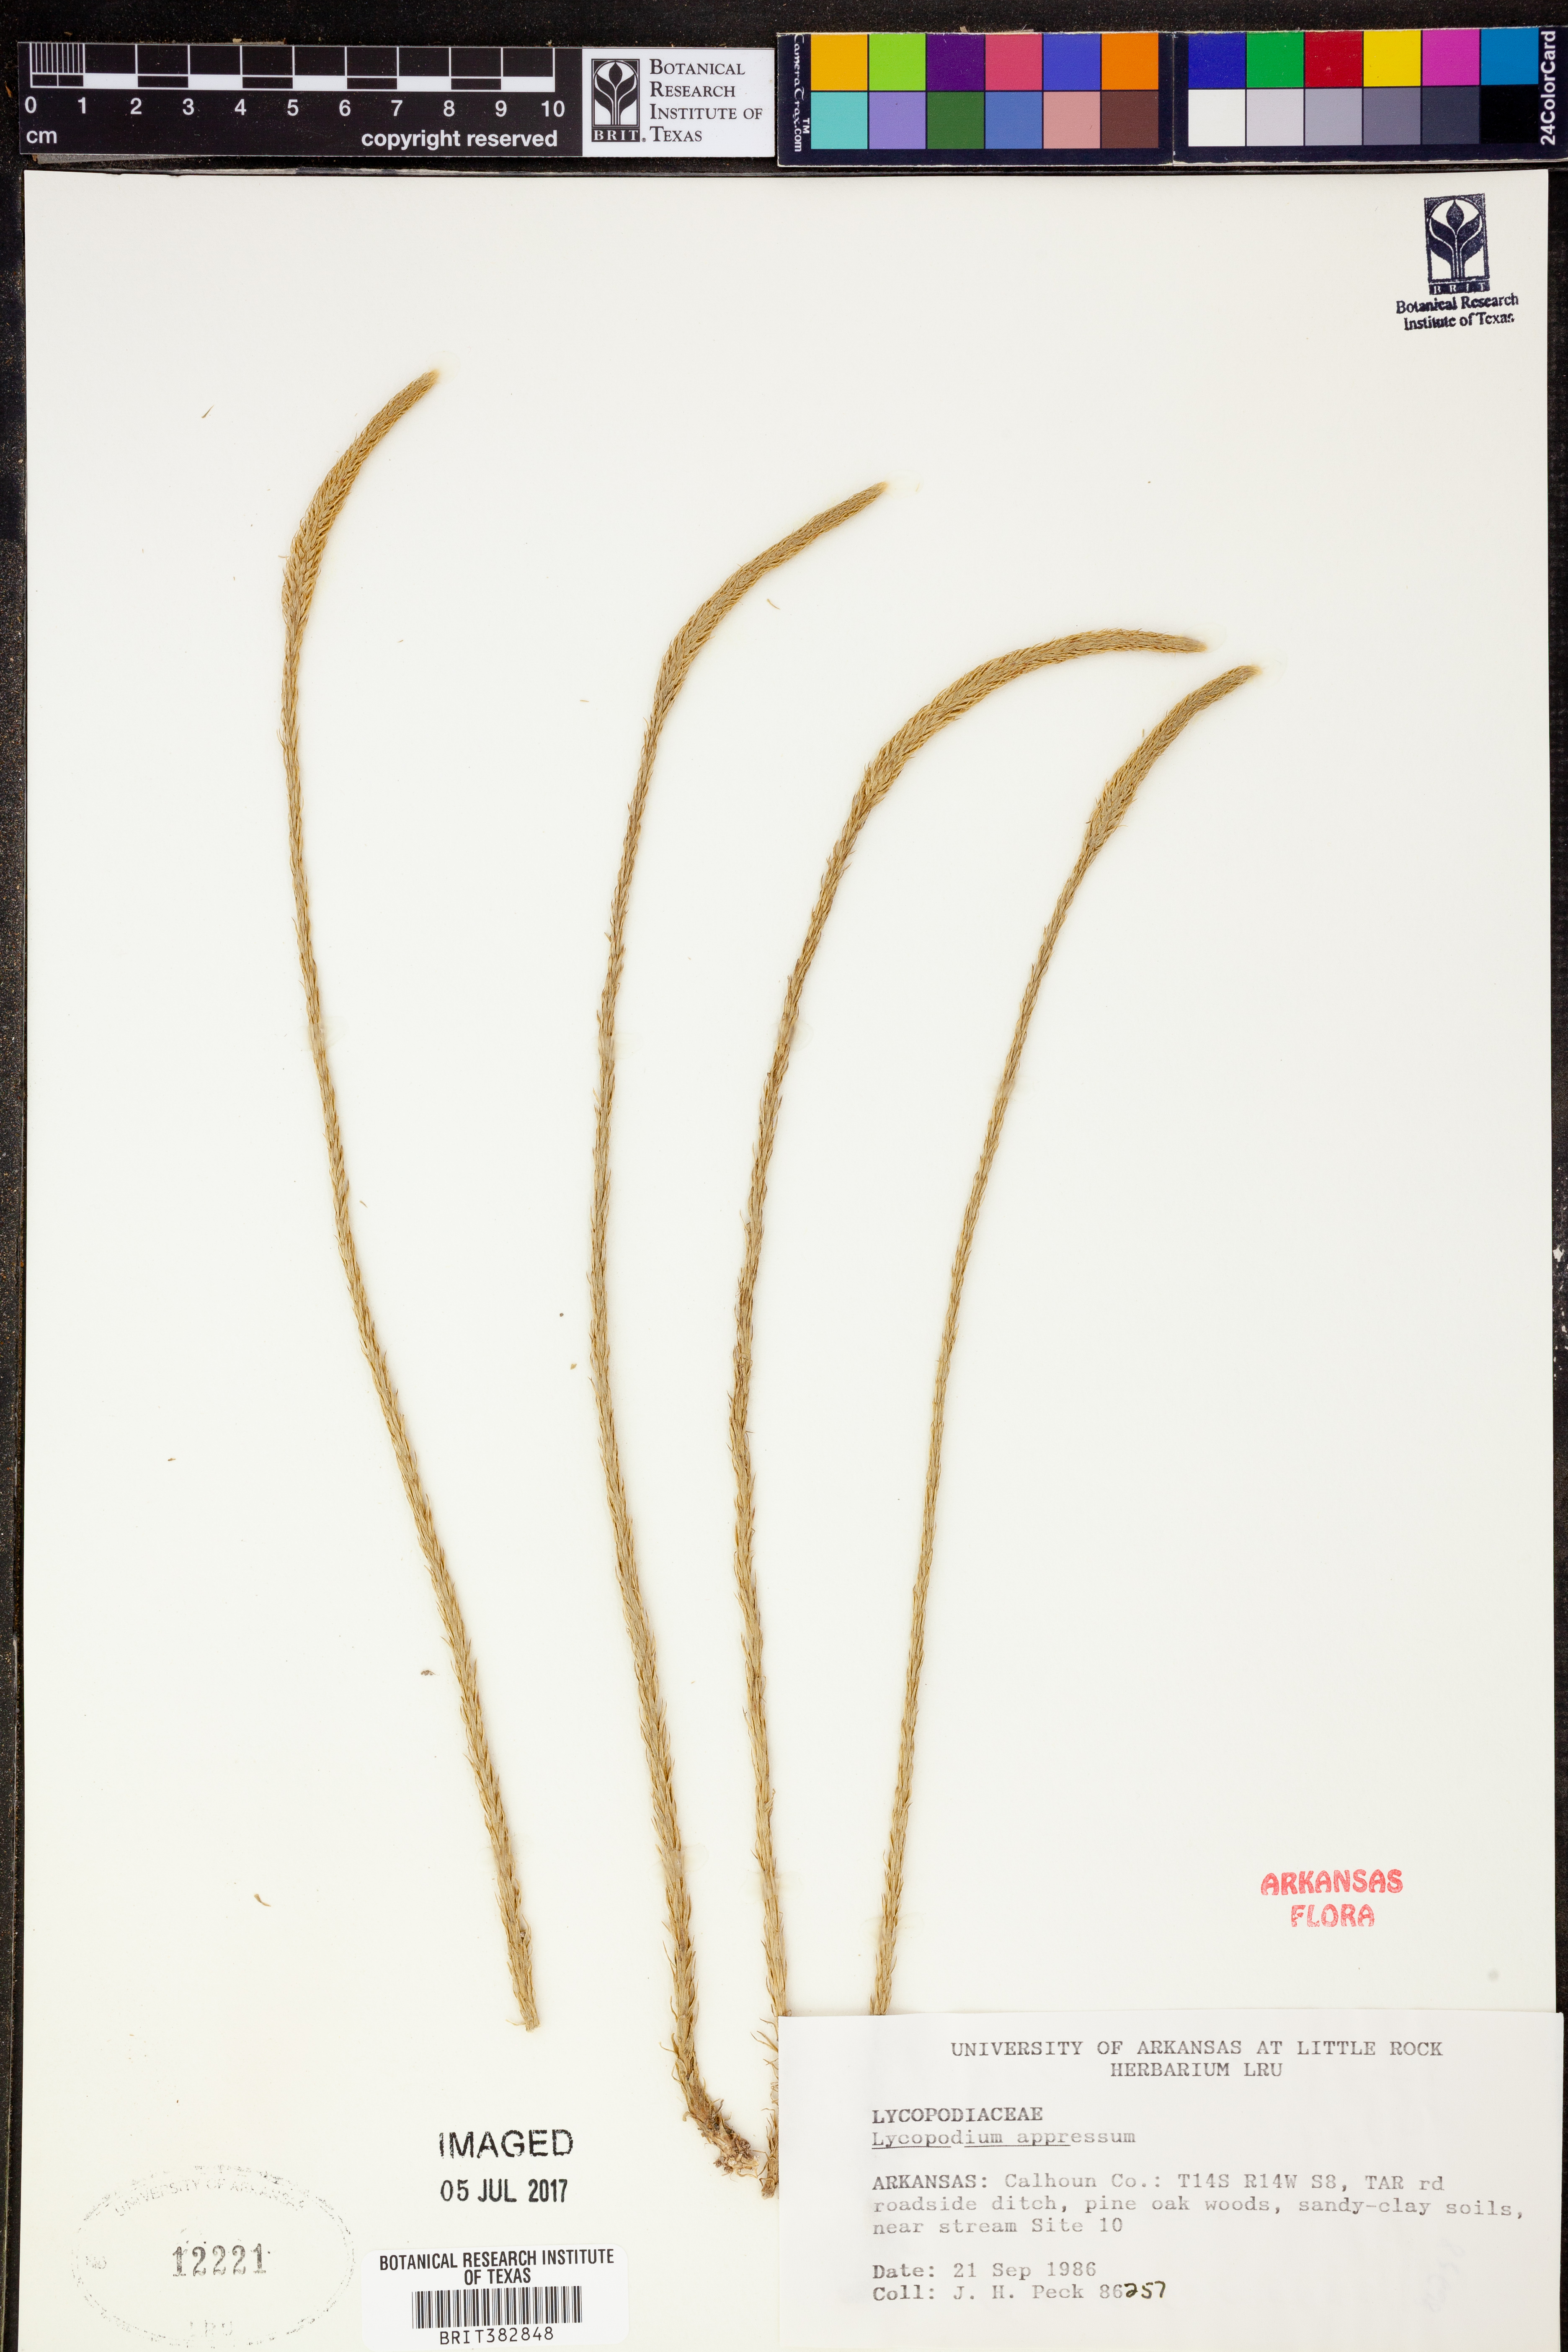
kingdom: Plantae
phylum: Tracheophyta
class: Lycopodiopsida
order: Lycopodiales
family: Lycopodiaceae
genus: Lycopodiella
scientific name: Lycopodiella appressa
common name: Appressed bog clubmoss
